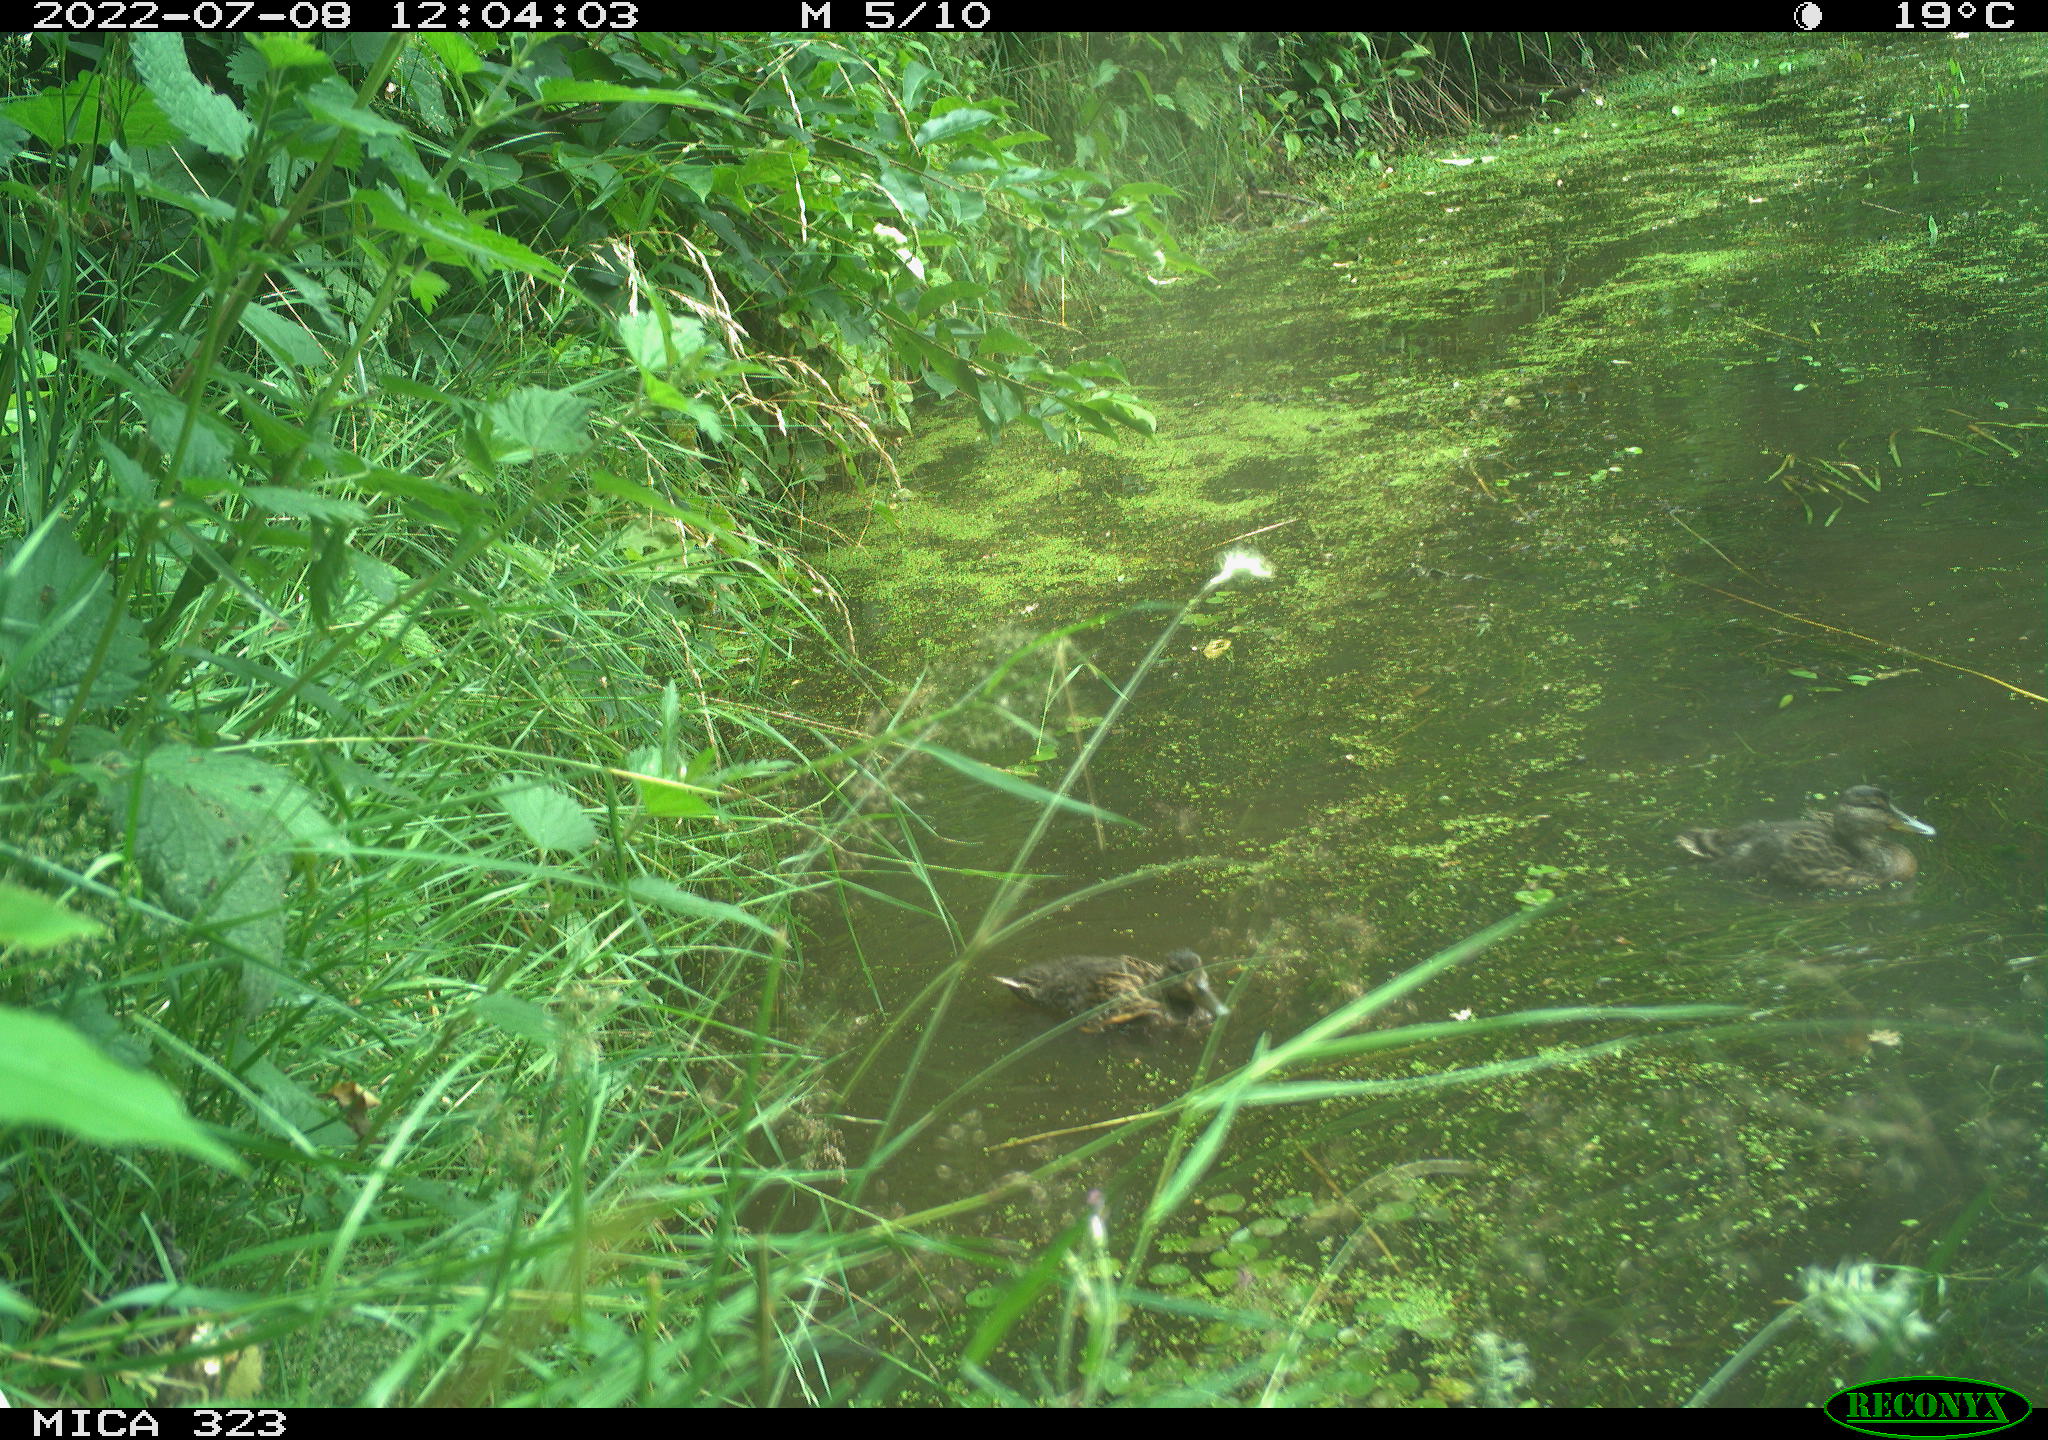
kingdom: Animalia
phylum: Chordata
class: Aves
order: Anseriformes
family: Anatidae
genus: Anas
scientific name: Anas platyrhynchos
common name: Mallard
